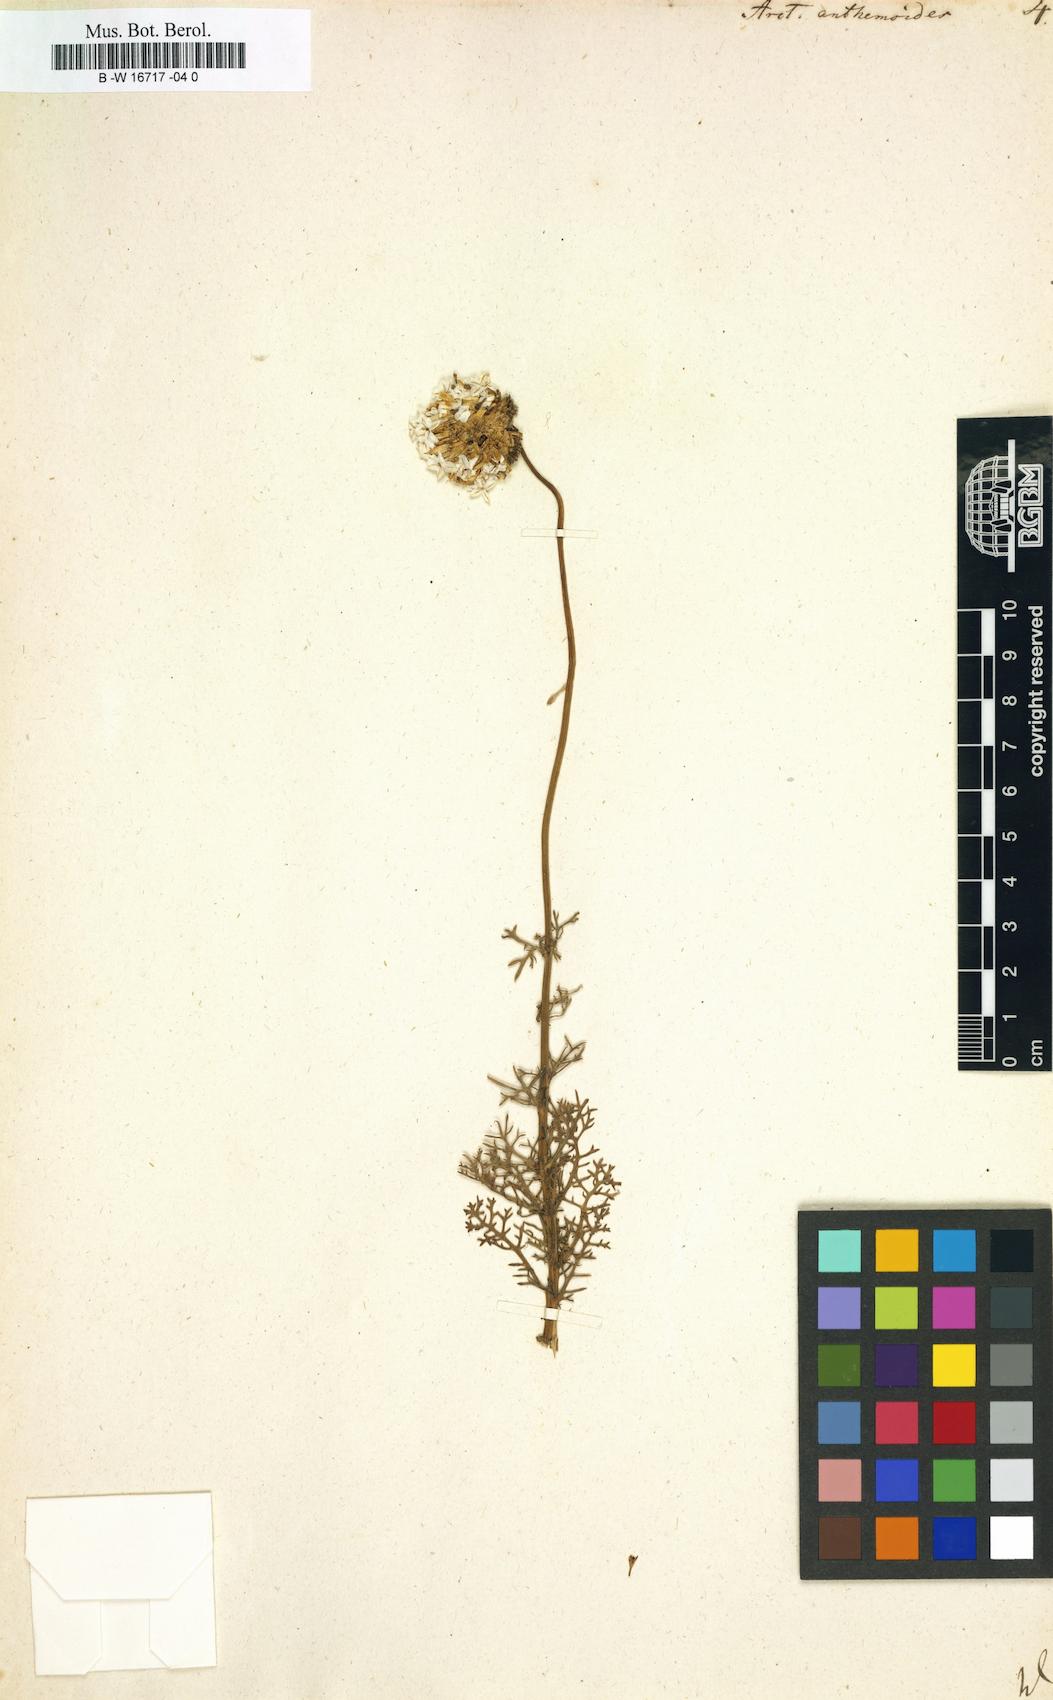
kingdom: Plantae
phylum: Tracheophyta
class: Magnoliopsida
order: Asterales
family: Asteraceae
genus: Ursinia
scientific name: Ursinia
